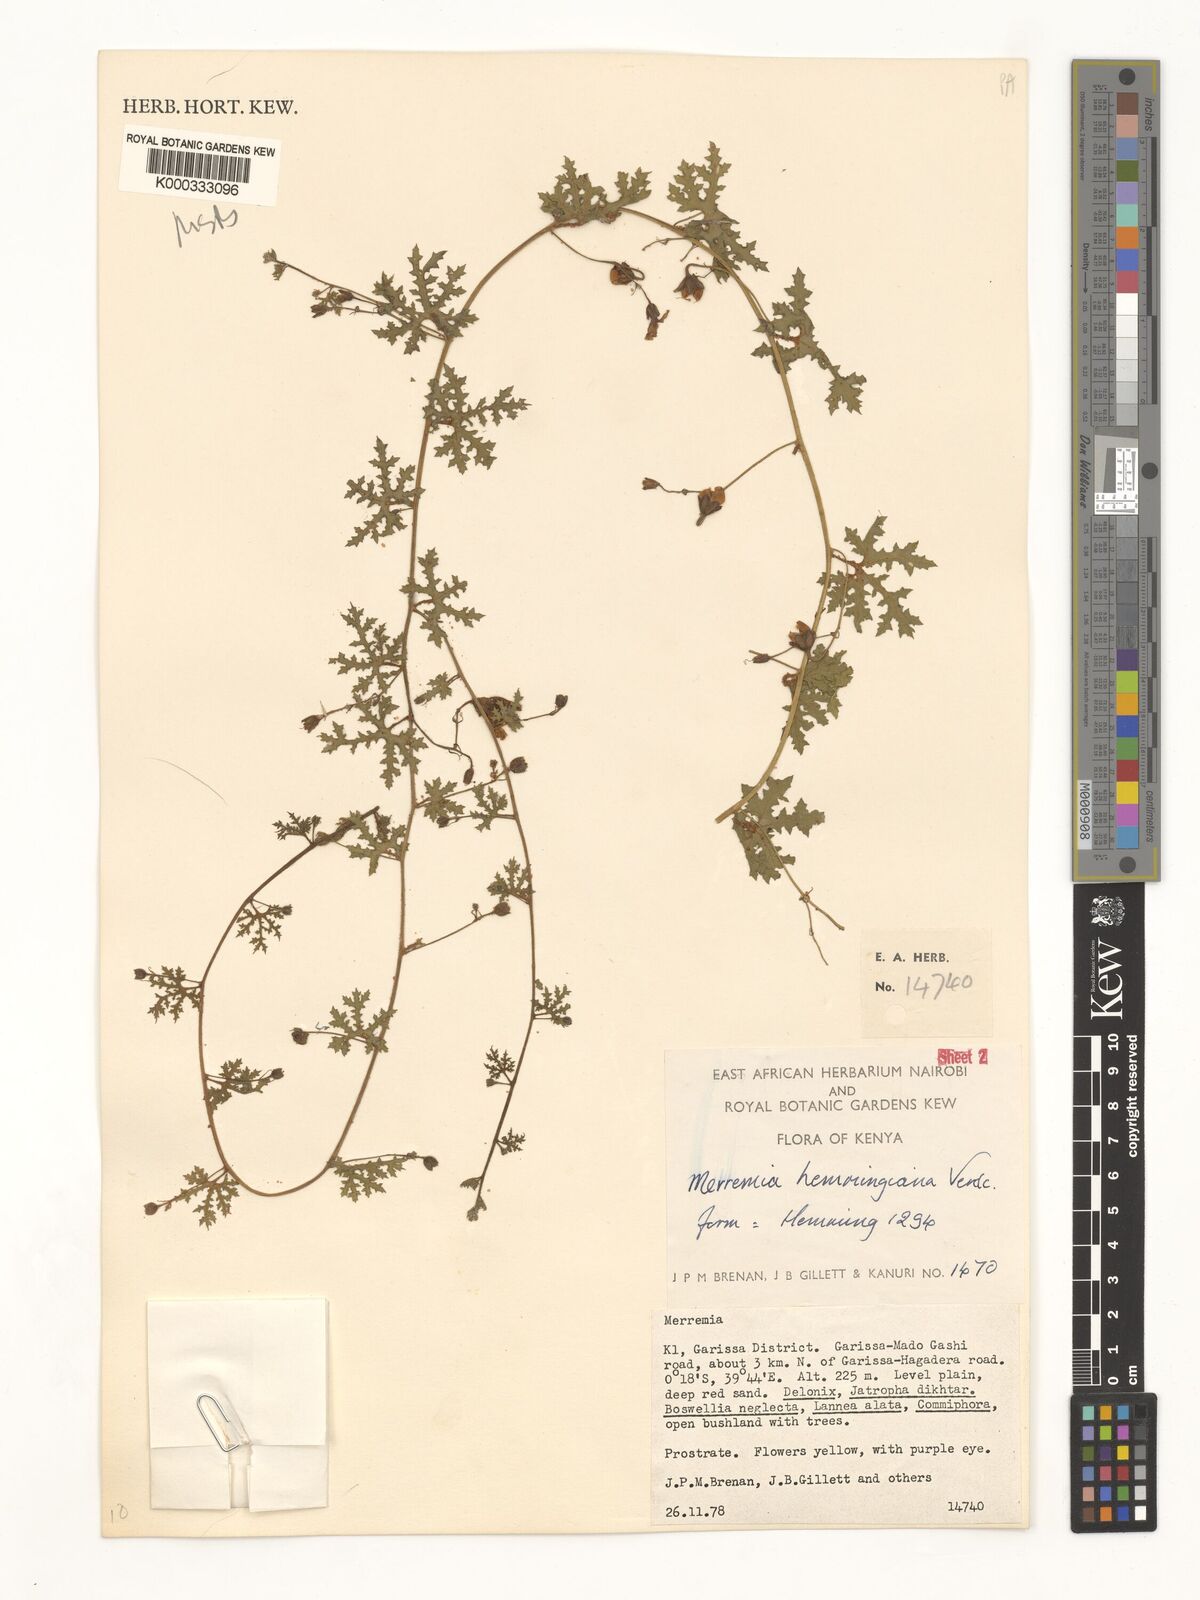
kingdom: Plantae
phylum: Tracheophyta
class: Magnoliopsida
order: Solanales
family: Convolvulaceae
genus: Merremia
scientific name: Merremia hemmingiana
